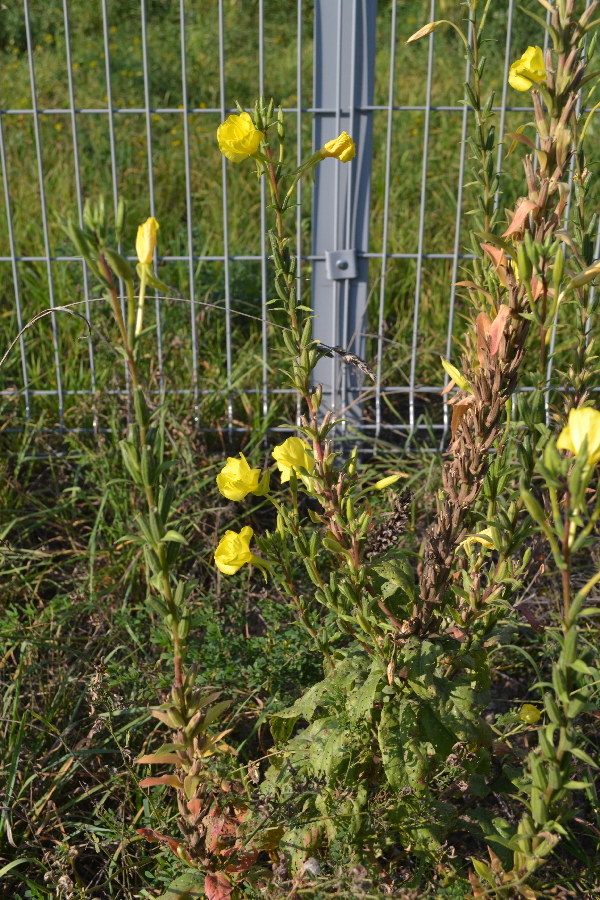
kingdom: Plantae
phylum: Tracheophyta
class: Magnoliopsida
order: Myrtales
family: Onagraceae
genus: Oenothera
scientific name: Oenothera rubricaulis
